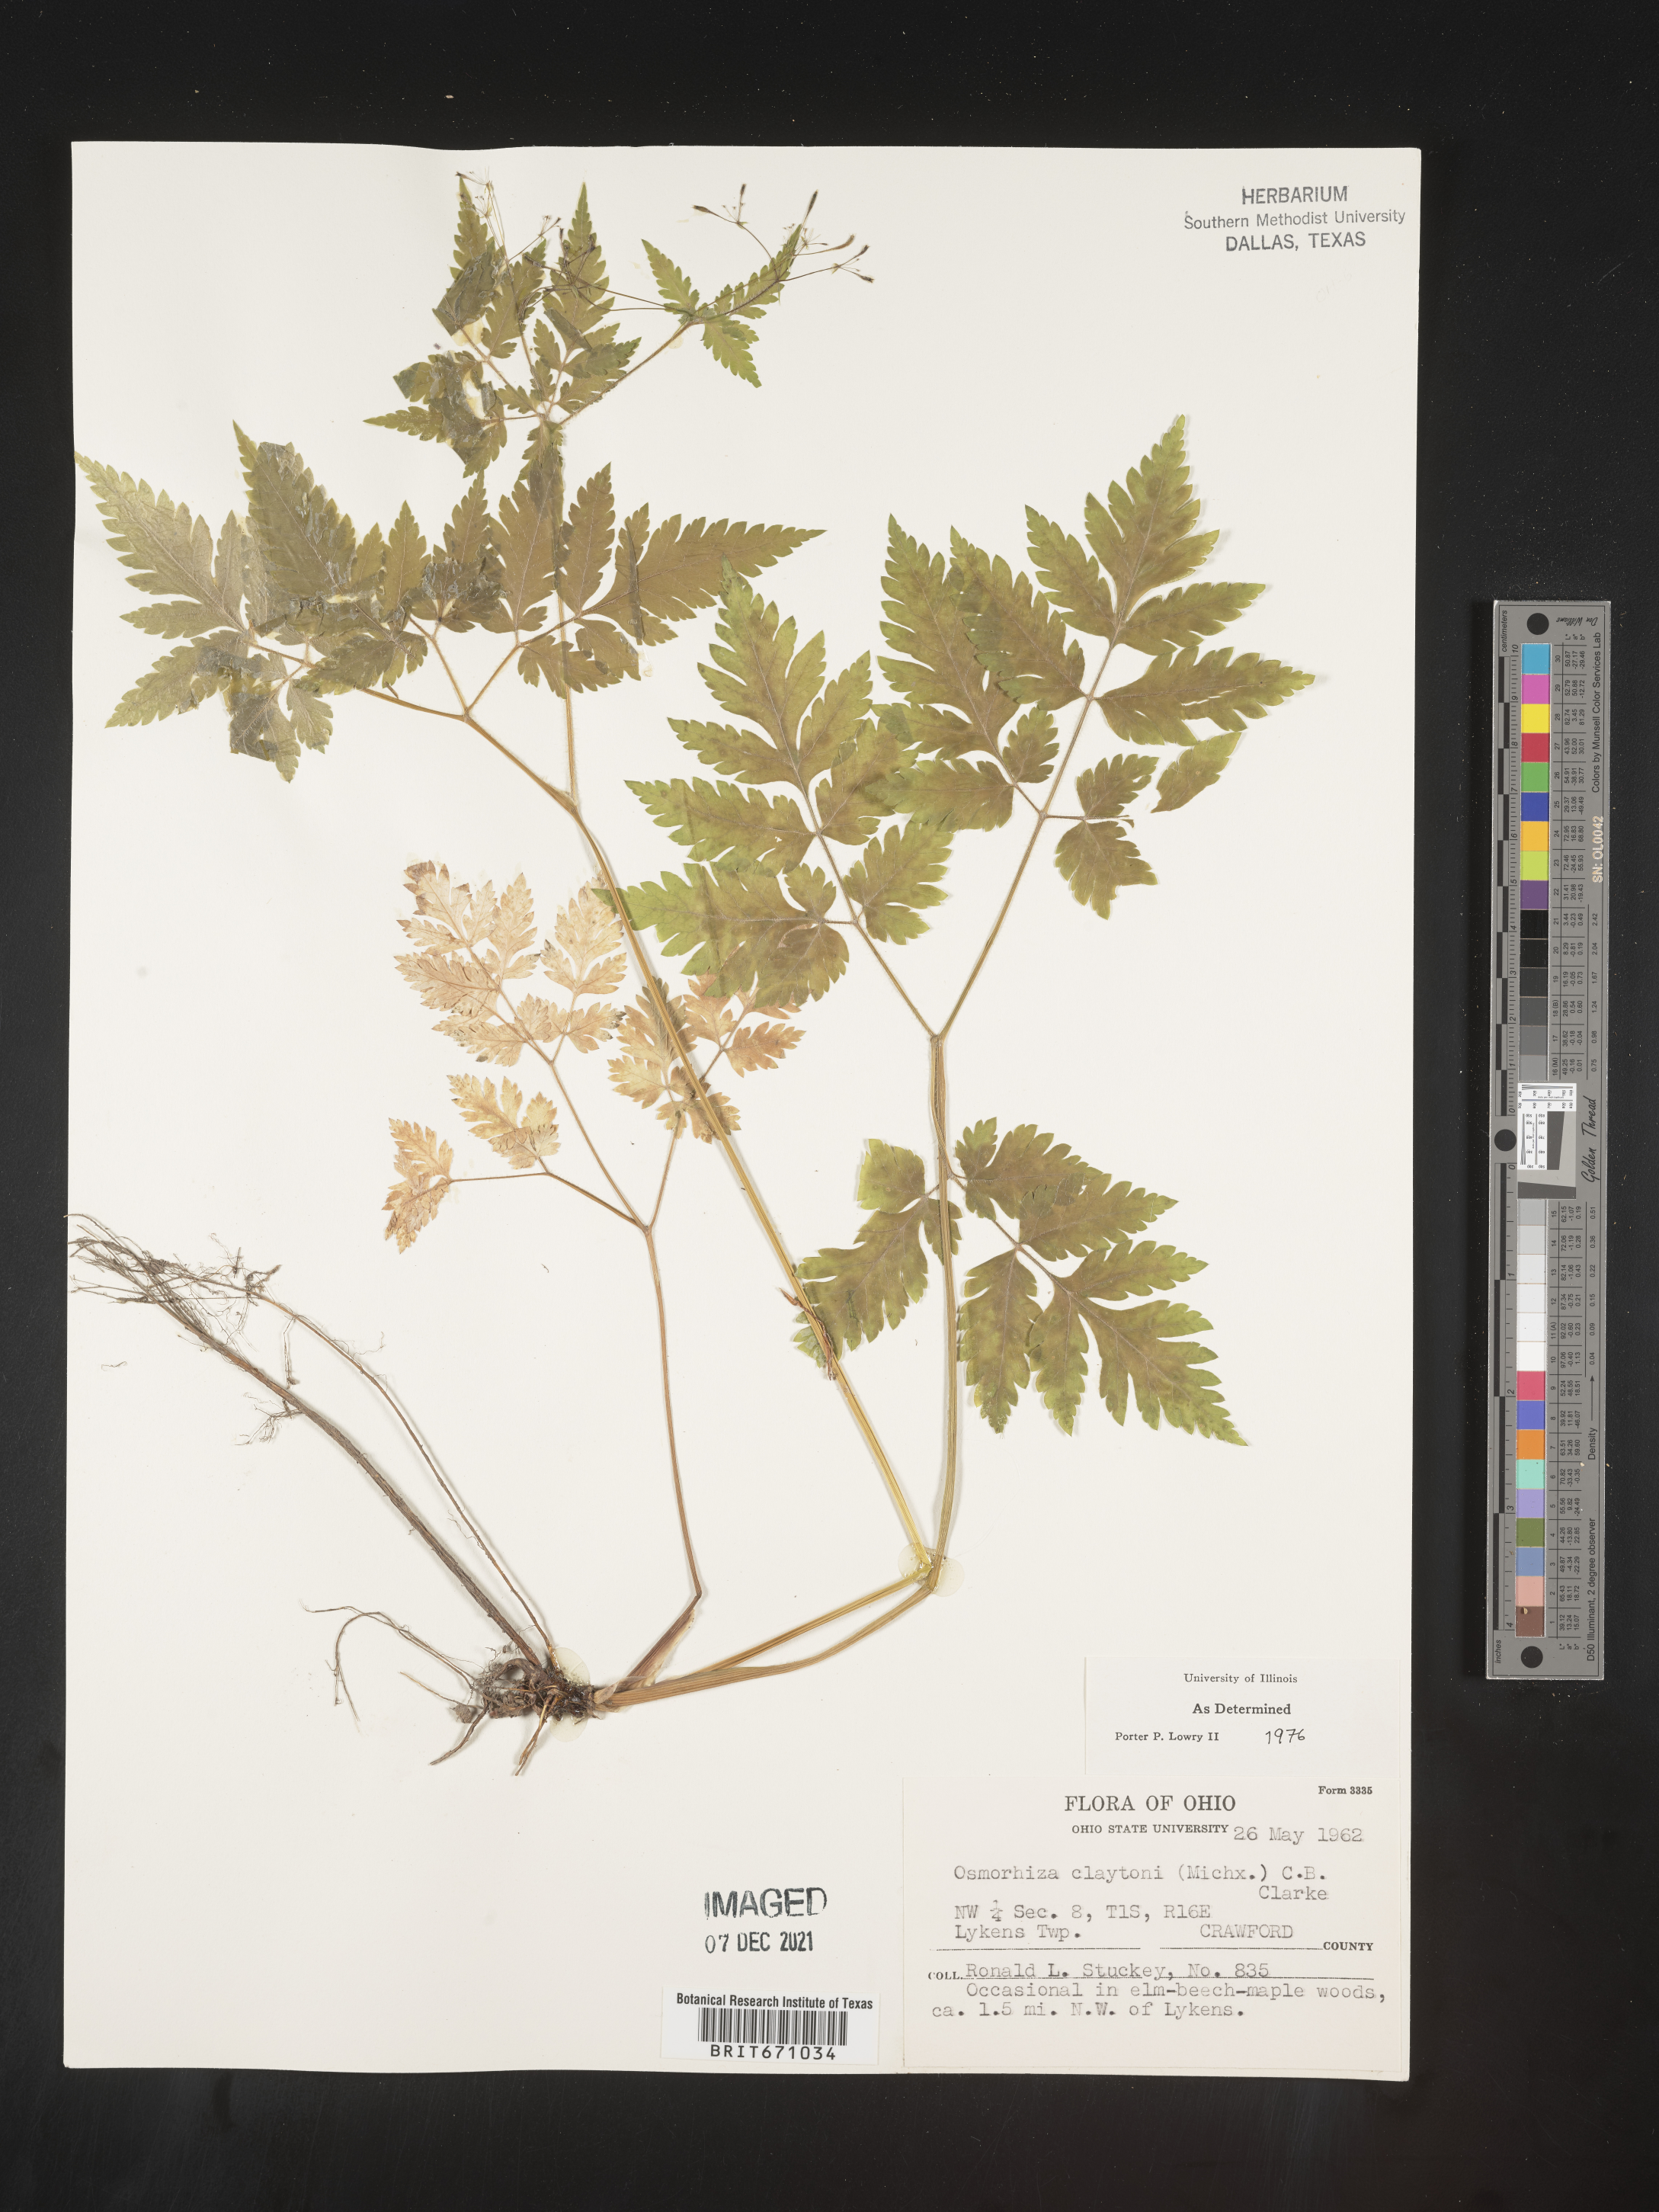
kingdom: Plantae
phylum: Tracheophyta
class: Magnoliopsida
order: Apiales
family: Apiaceae
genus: Osmorhiza
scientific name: Osmorhiza claytonii
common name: Hairy sweet cicely
